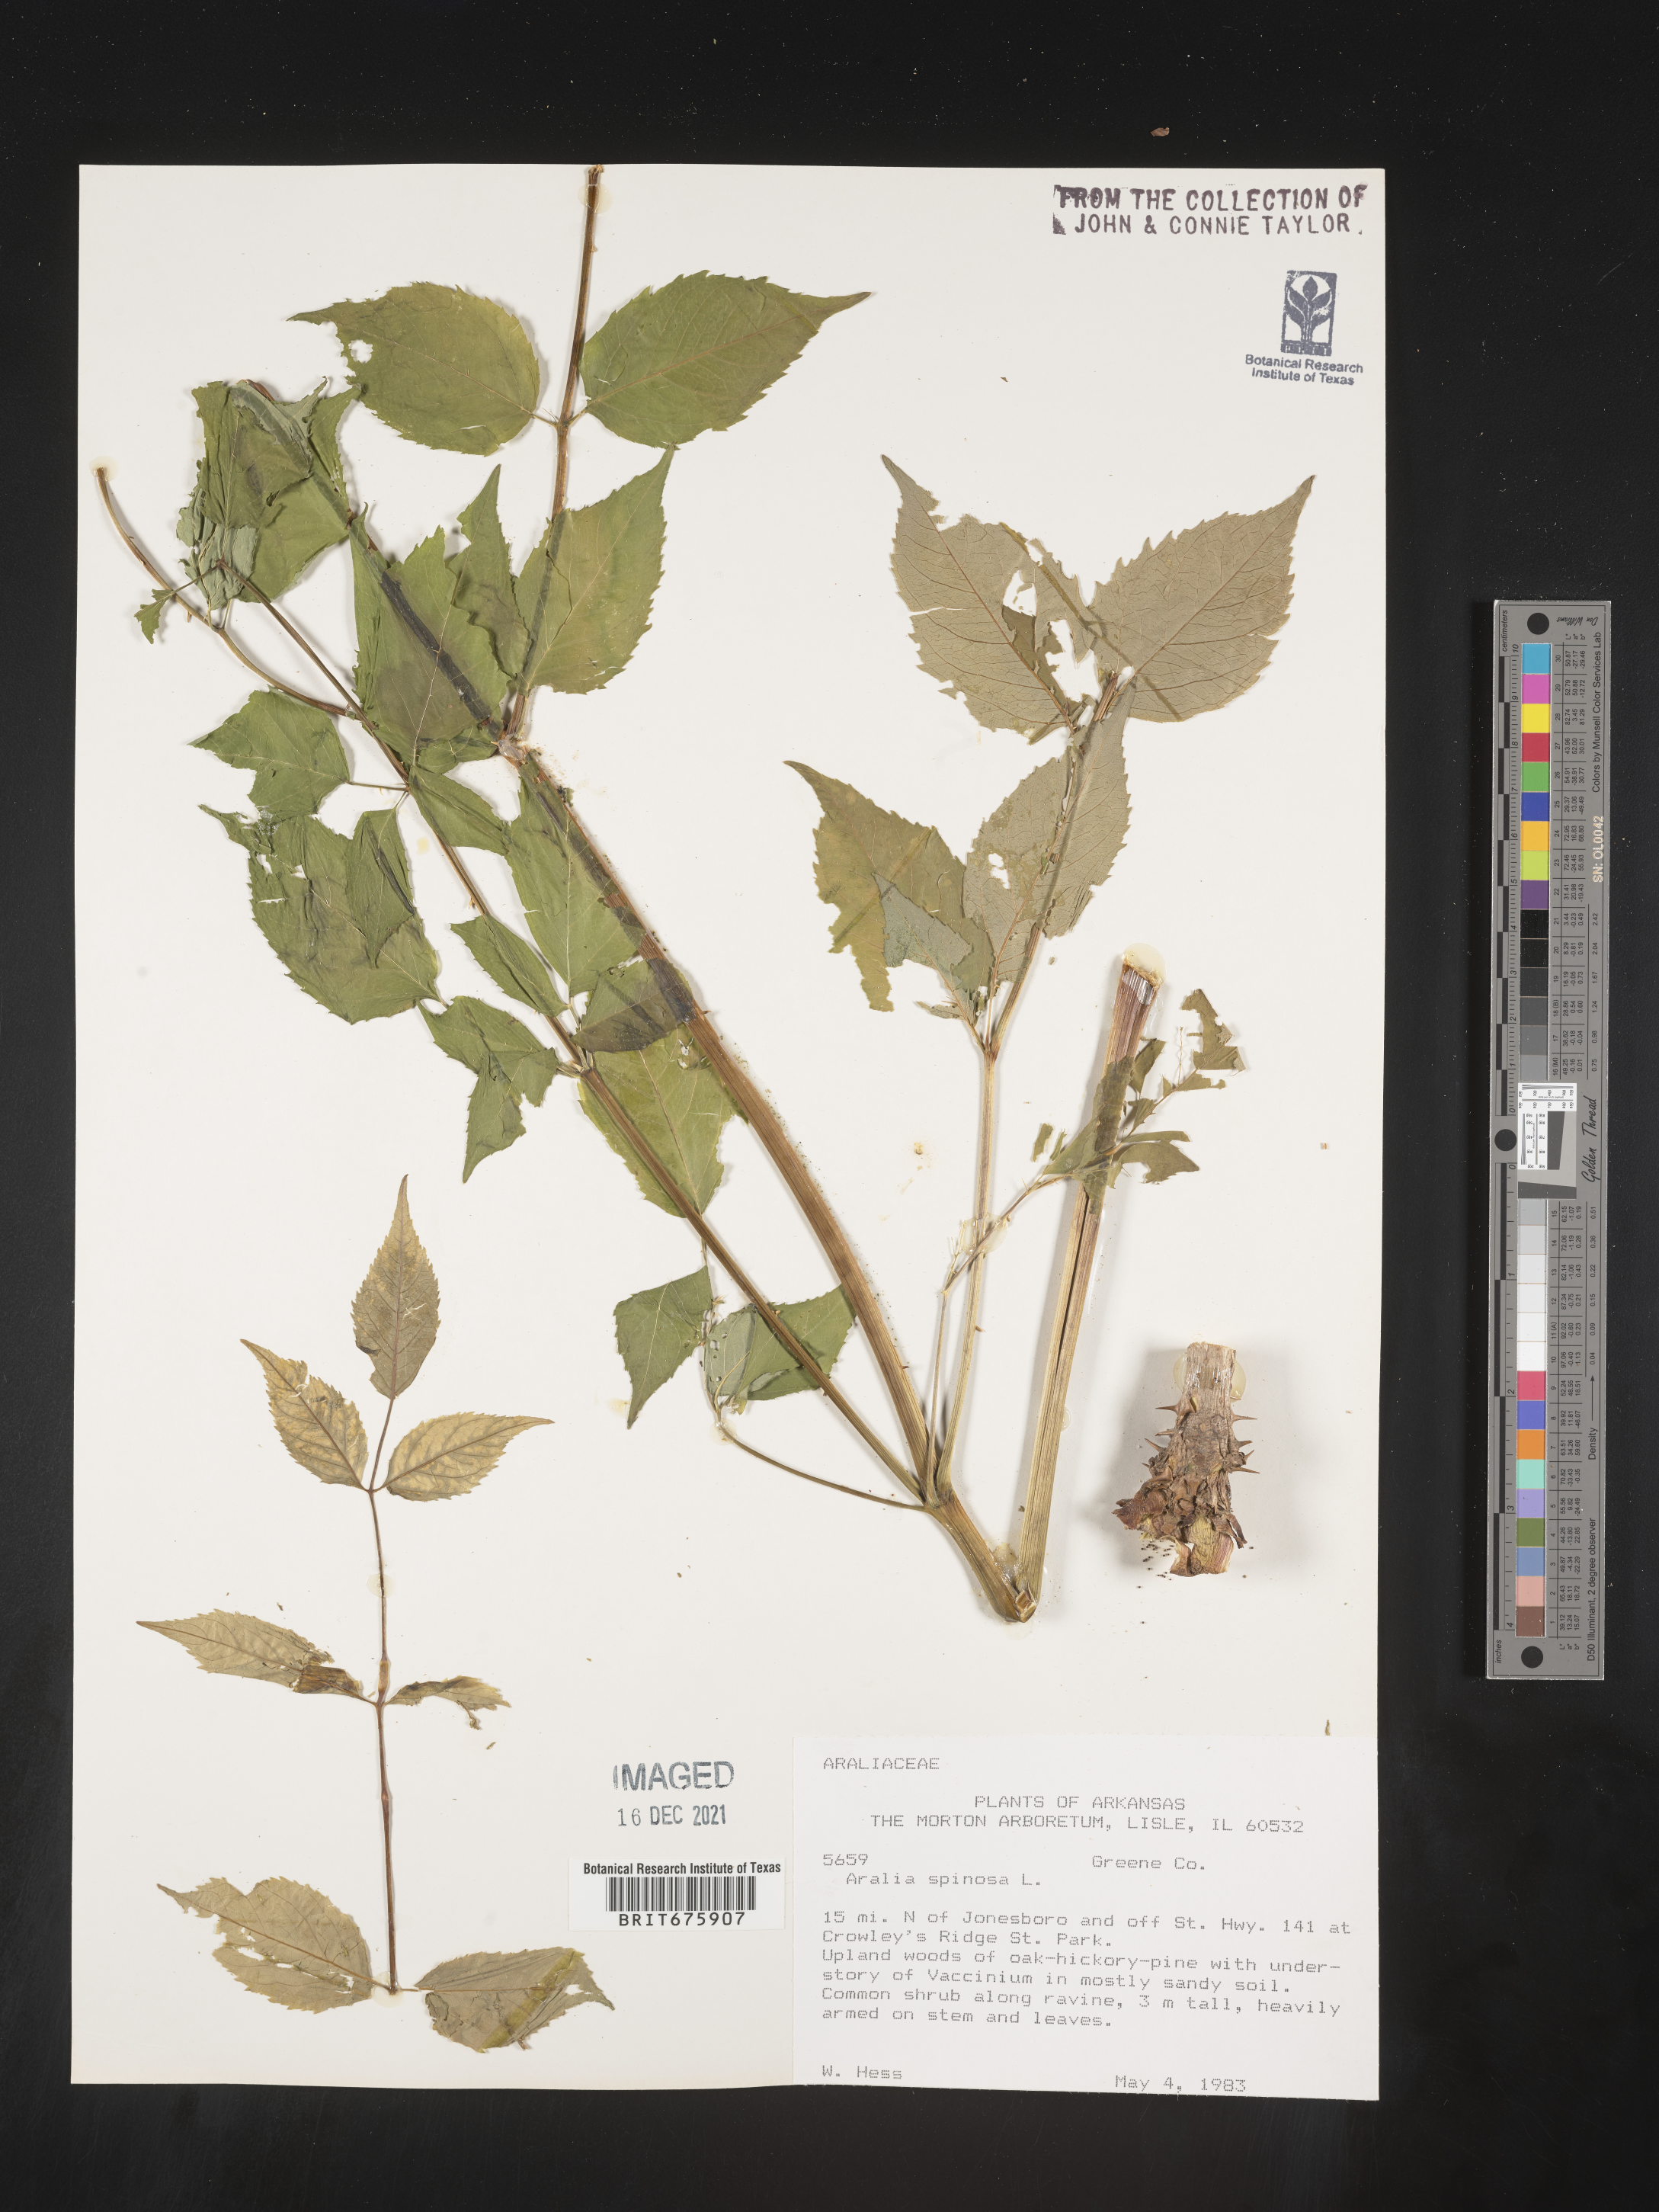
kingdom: Plantae
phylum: Tracheophyta
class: Magnoliopsida
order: Apiales
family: Araliaceae
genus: Aralia
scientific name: Aralia spinosa
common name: Hercules'-club
